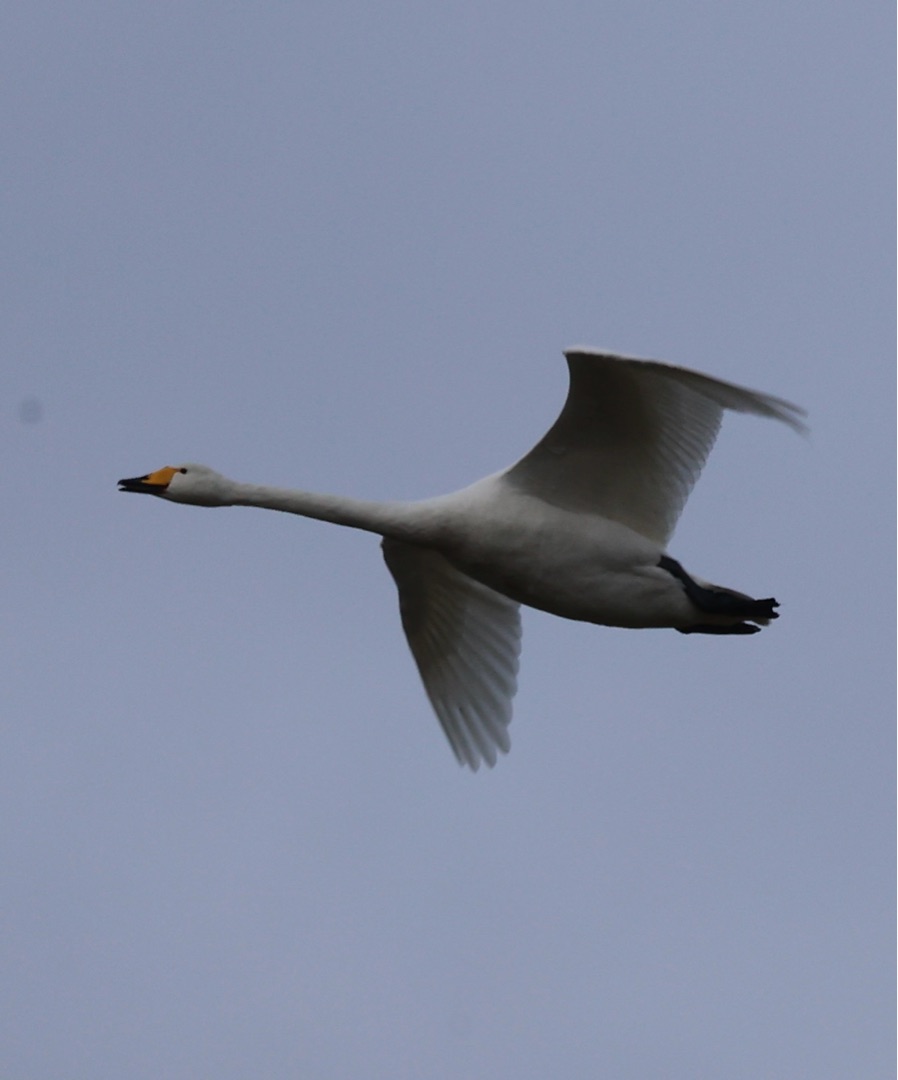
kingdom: Animalia
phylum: Chordata
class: Aves
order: Anseriformes
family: Anatidae
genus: Cygnus
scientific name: Cygnus cygnus
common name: Sangsvane
